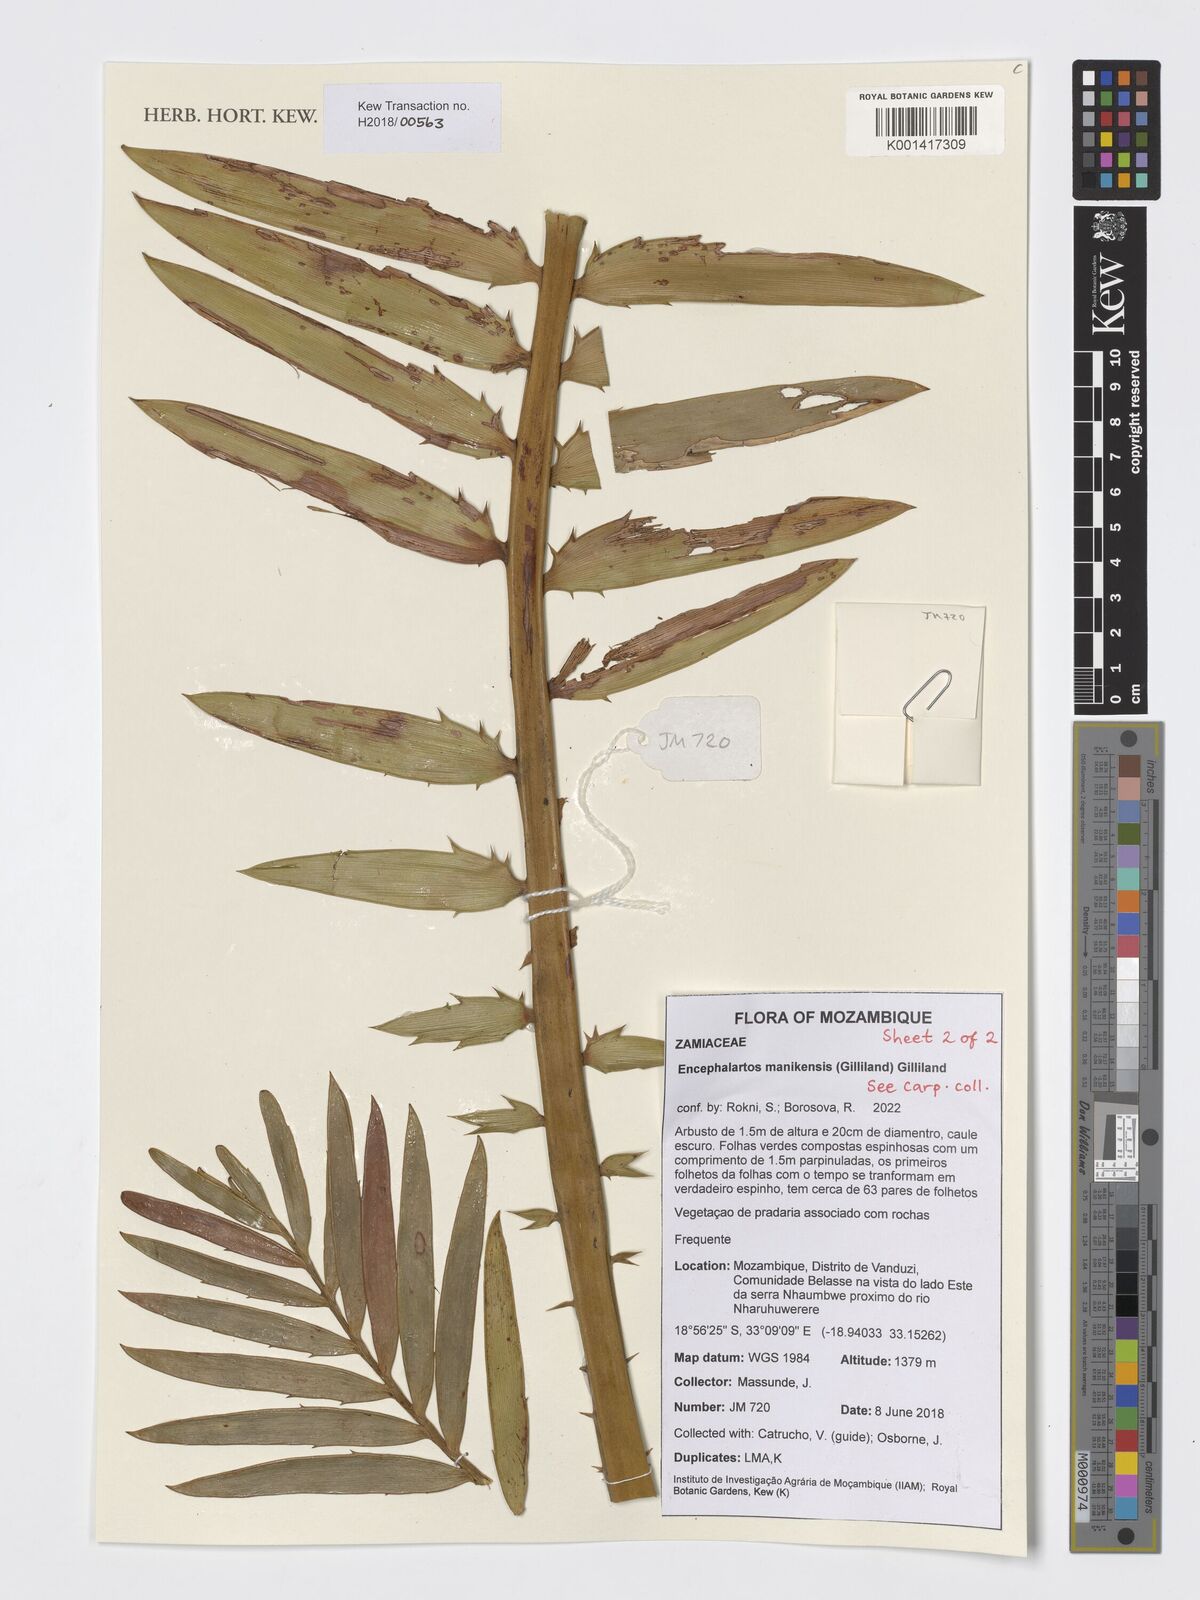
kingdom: Plantae
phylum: Tracheophyta
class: Cycadopsida
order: Cycadales
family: Zamiaceae
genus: Encephalartos
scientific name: Encephalartos manikensis
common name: Gorongo cycad
